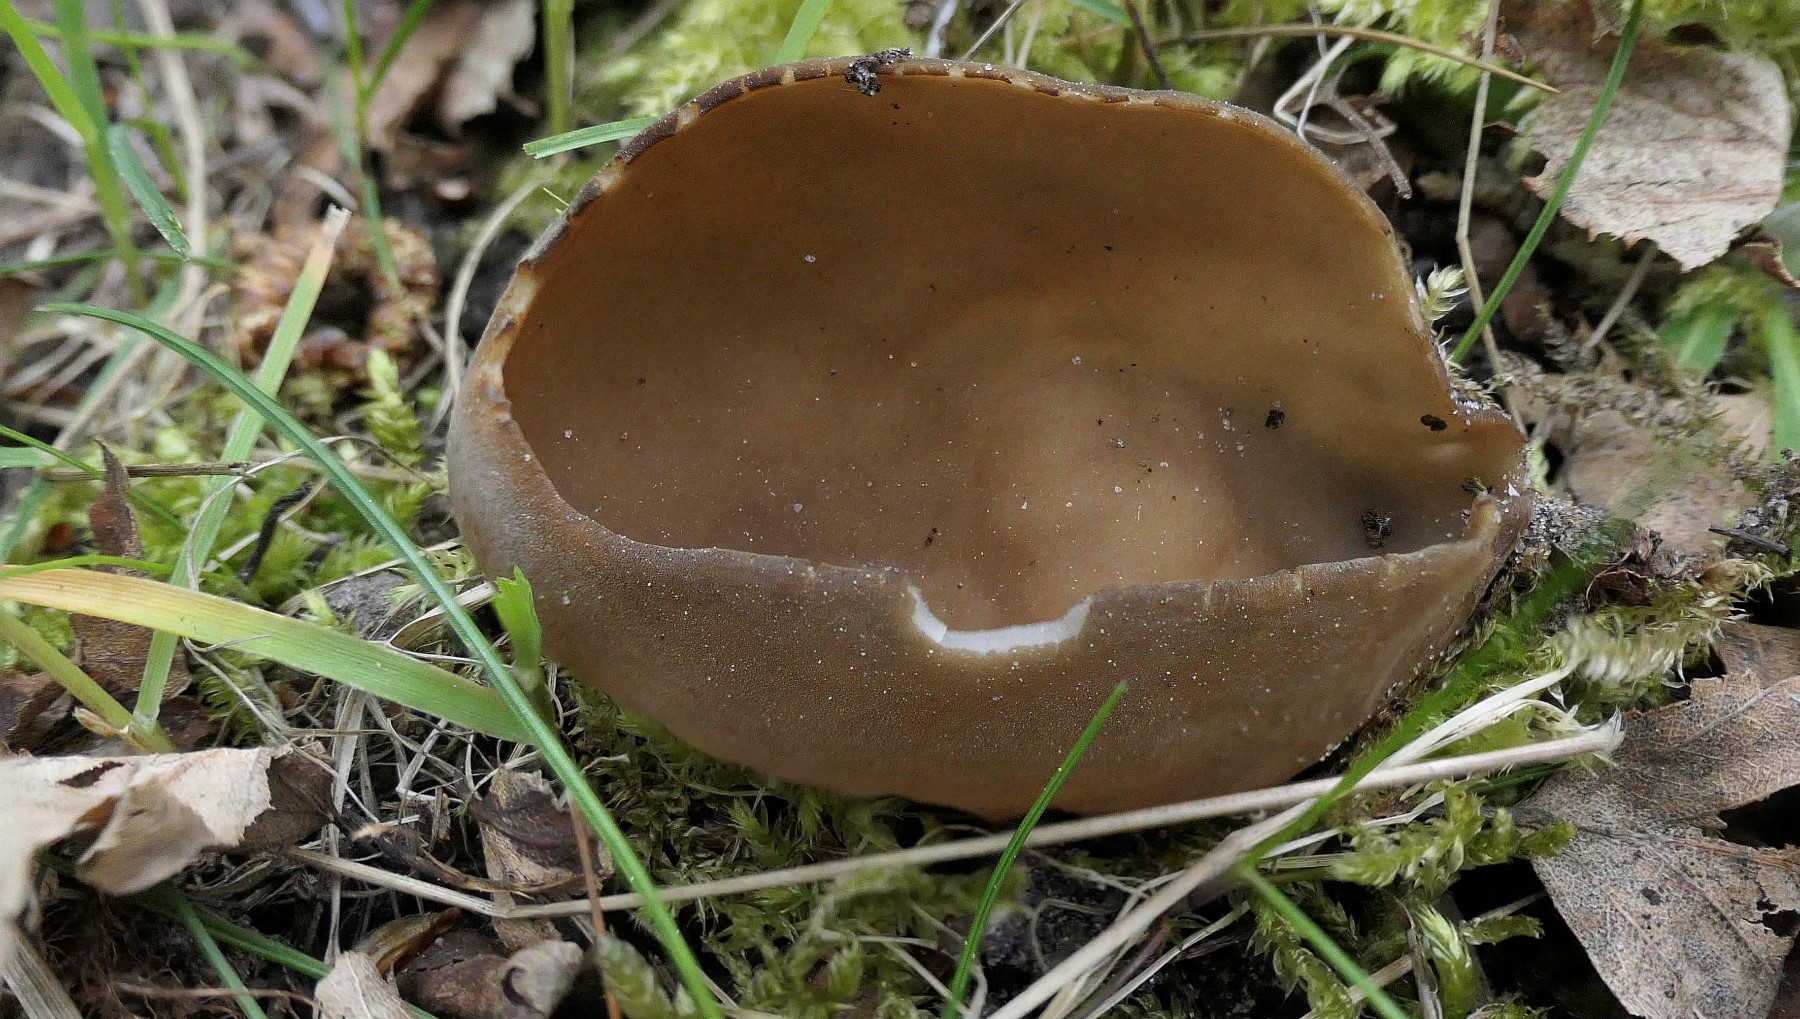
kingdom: Fungi
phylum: Ascomycota
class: Pezizomycetes
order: Pezizales
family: Helvellaceae
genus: Helvella
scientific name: Helvella acetabulum
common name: pokal-foldhat
